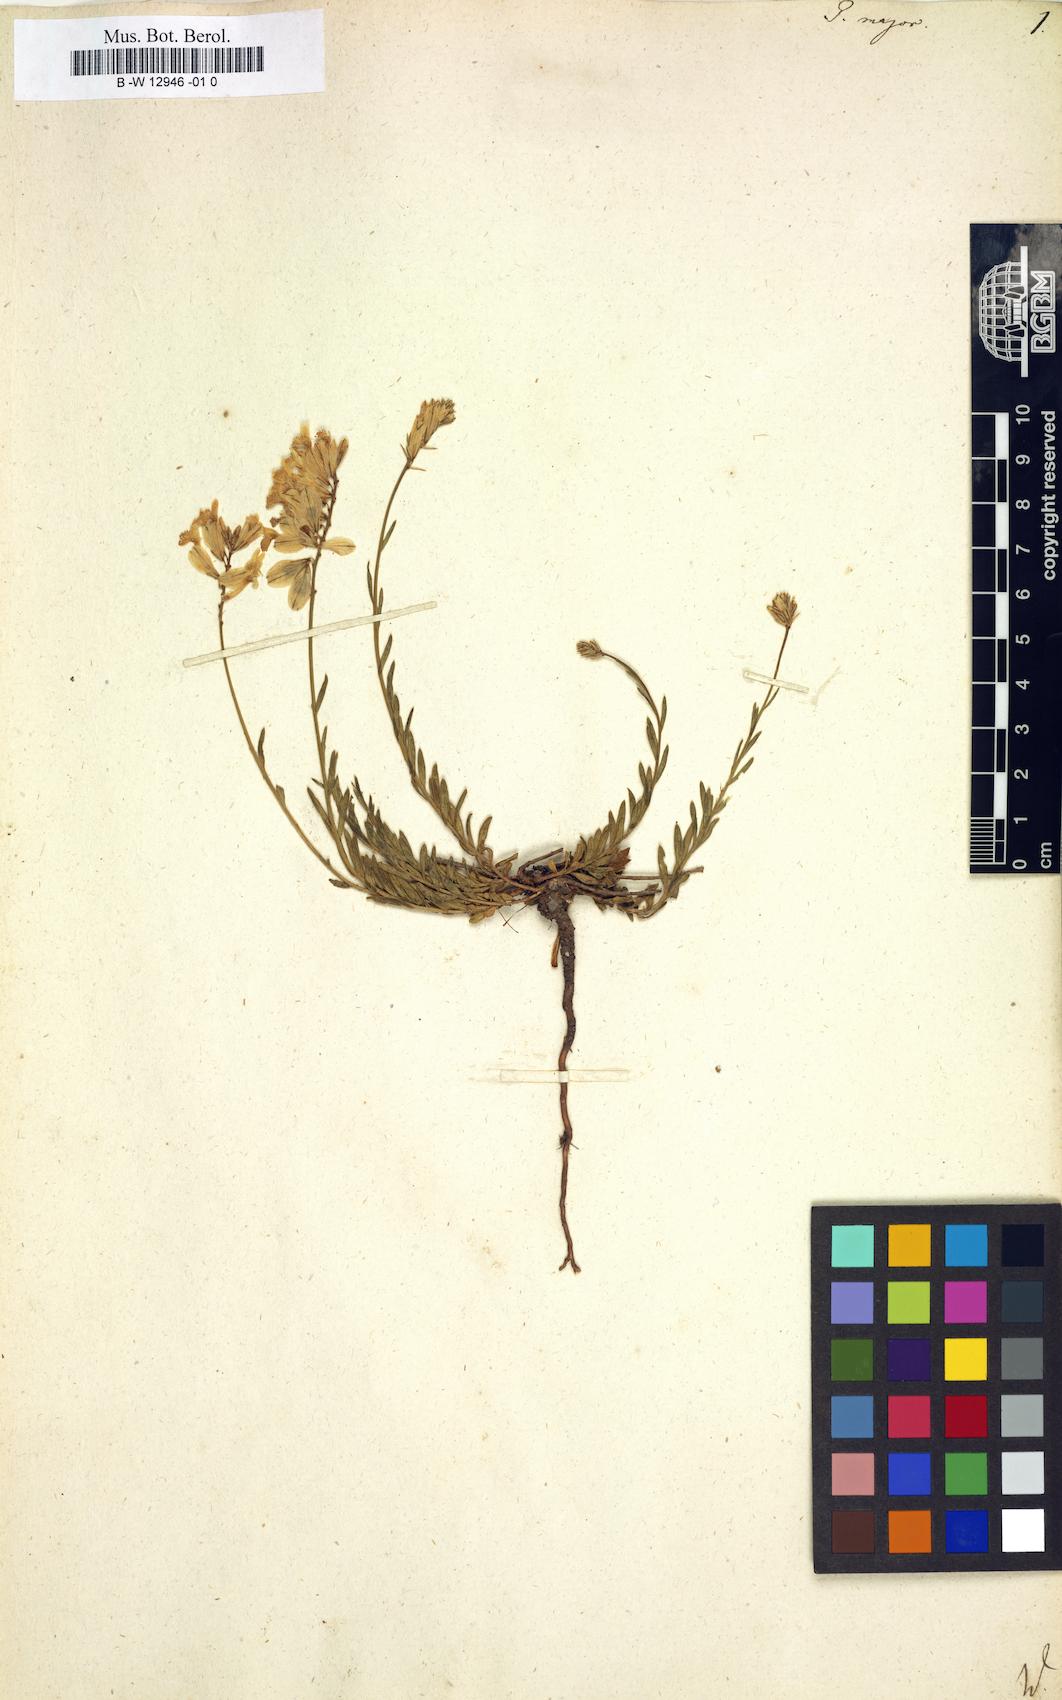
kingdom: Plantae
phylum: Tracheophyta
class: Magnoliopsida
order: Fabales
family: Polygalaceae
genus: Polygala
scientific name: Polygala major
